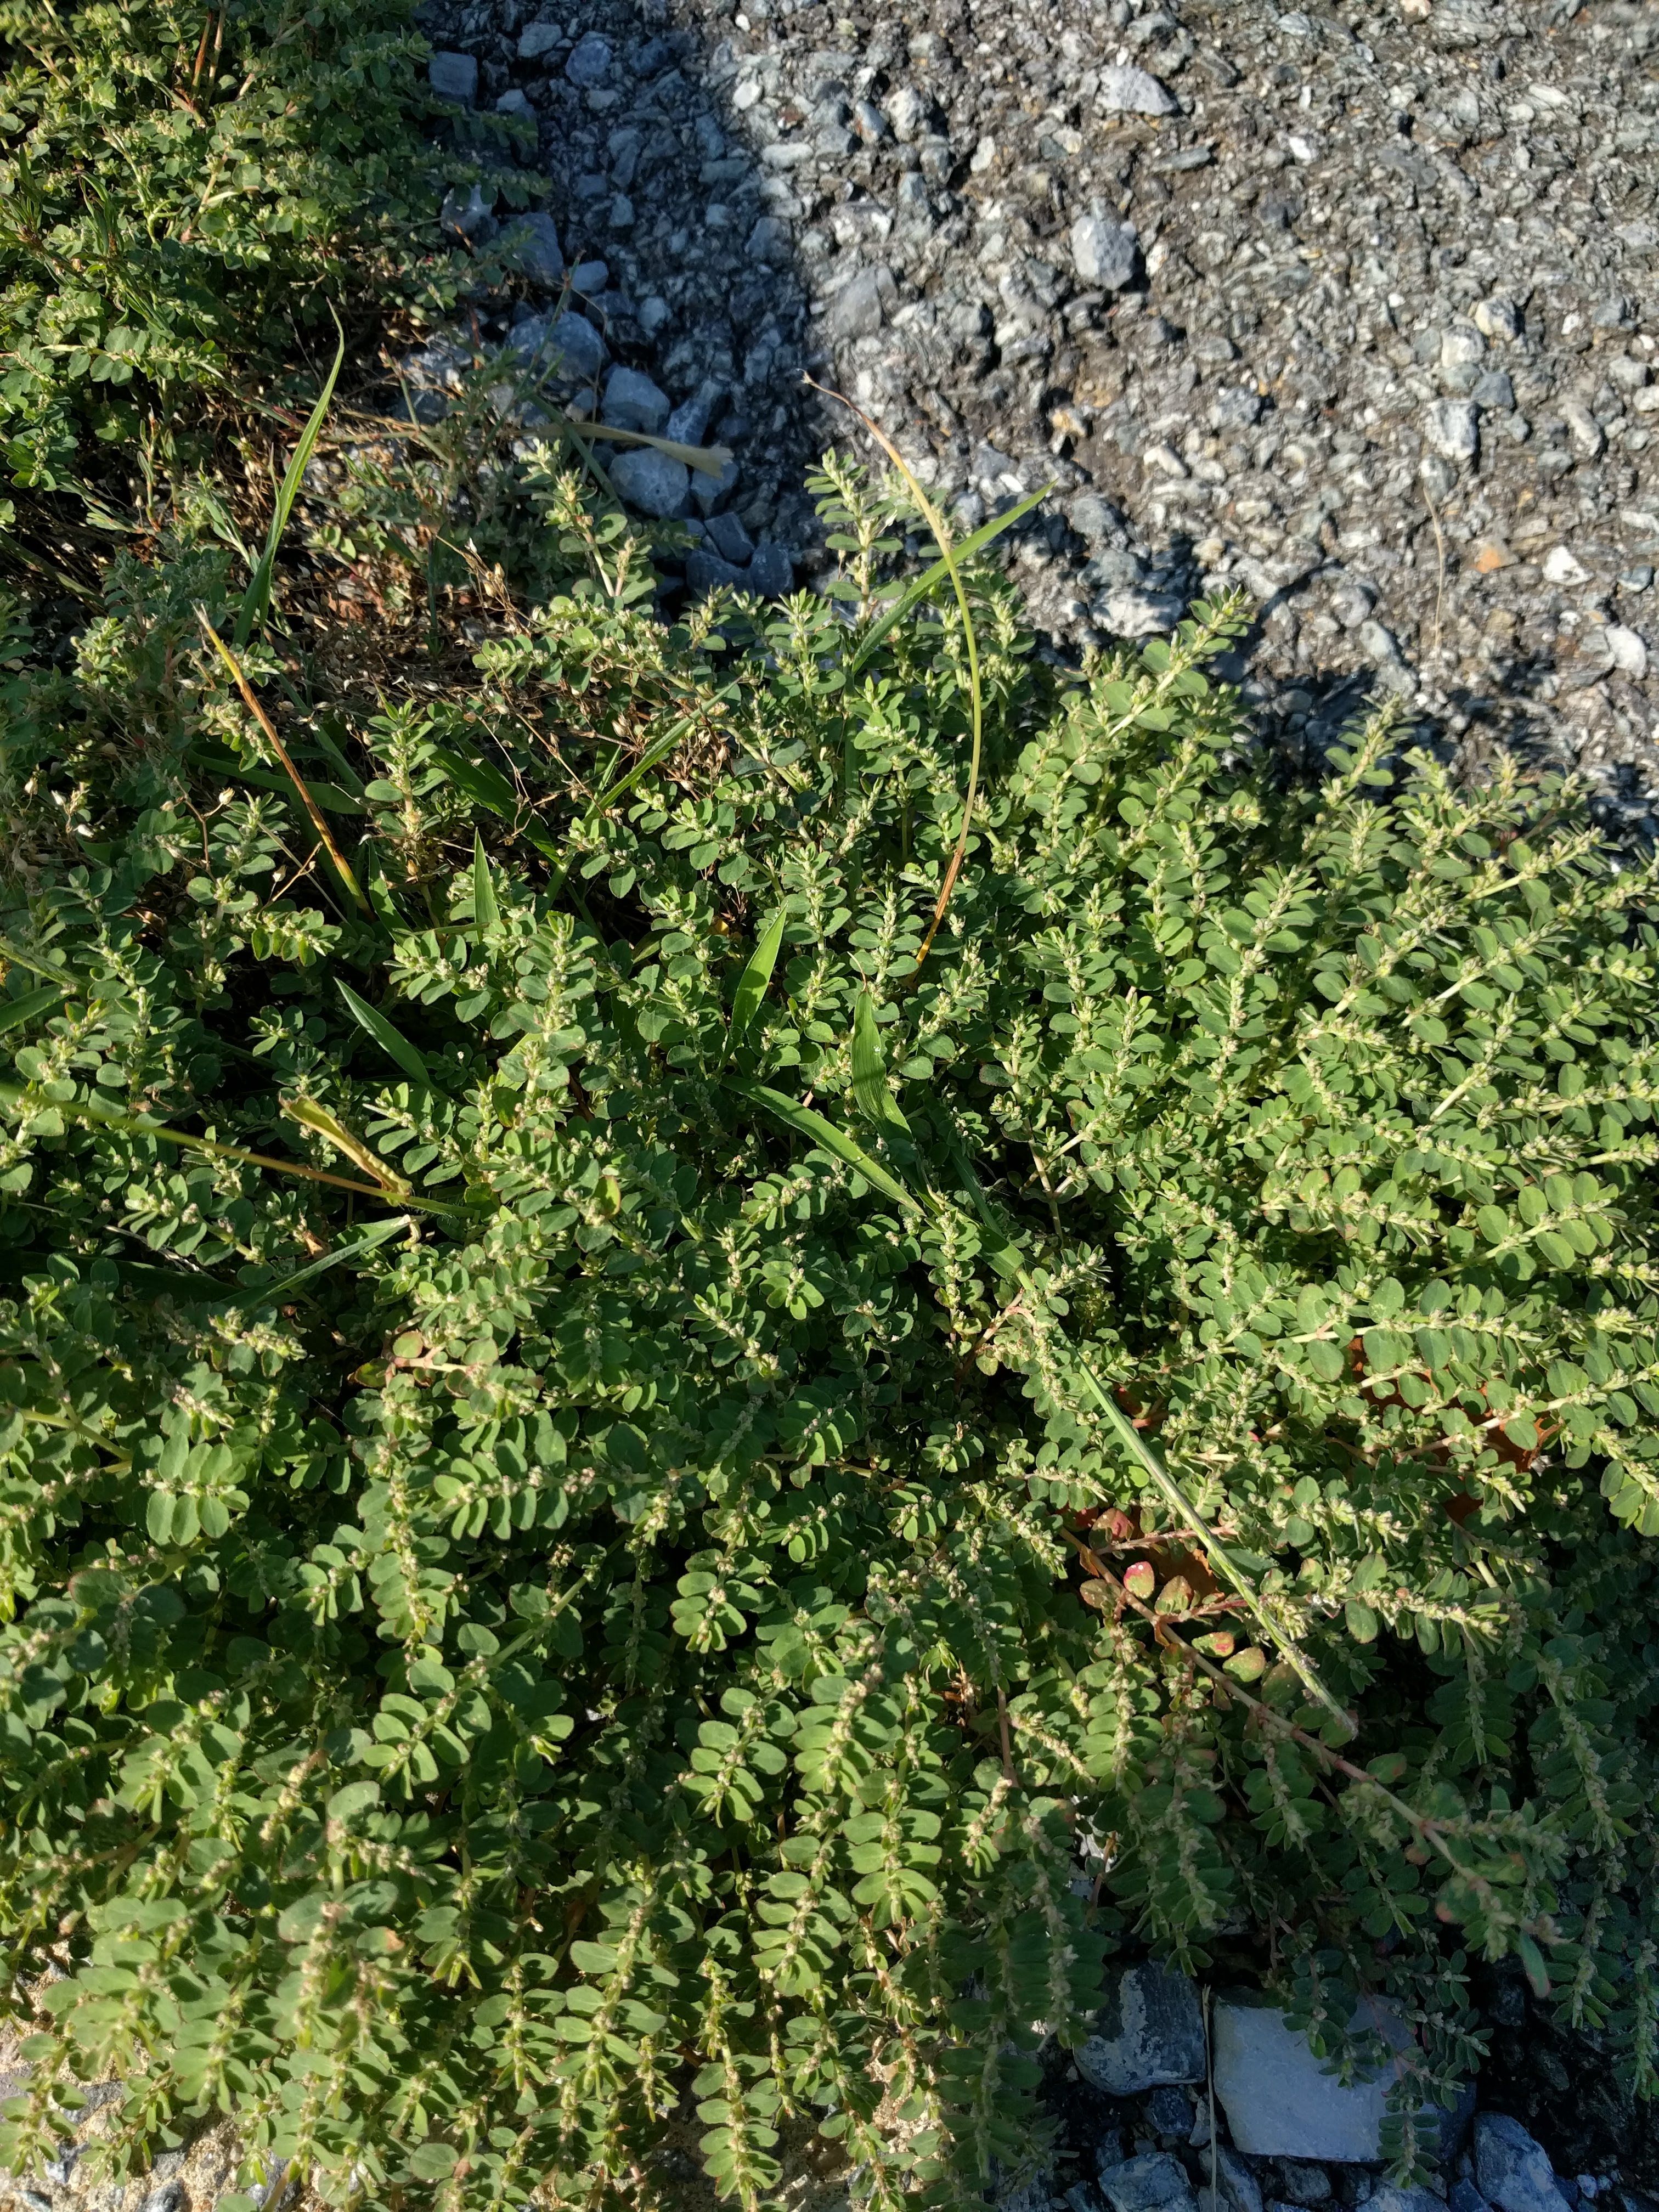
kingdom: Plantae
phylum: Tracheophyta
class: Magnoliopsida
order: Malpighiales
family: Euphorbiaceae
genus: Euphorbia
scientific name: Euphorbia prostrata
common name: Prostrate sandmat
